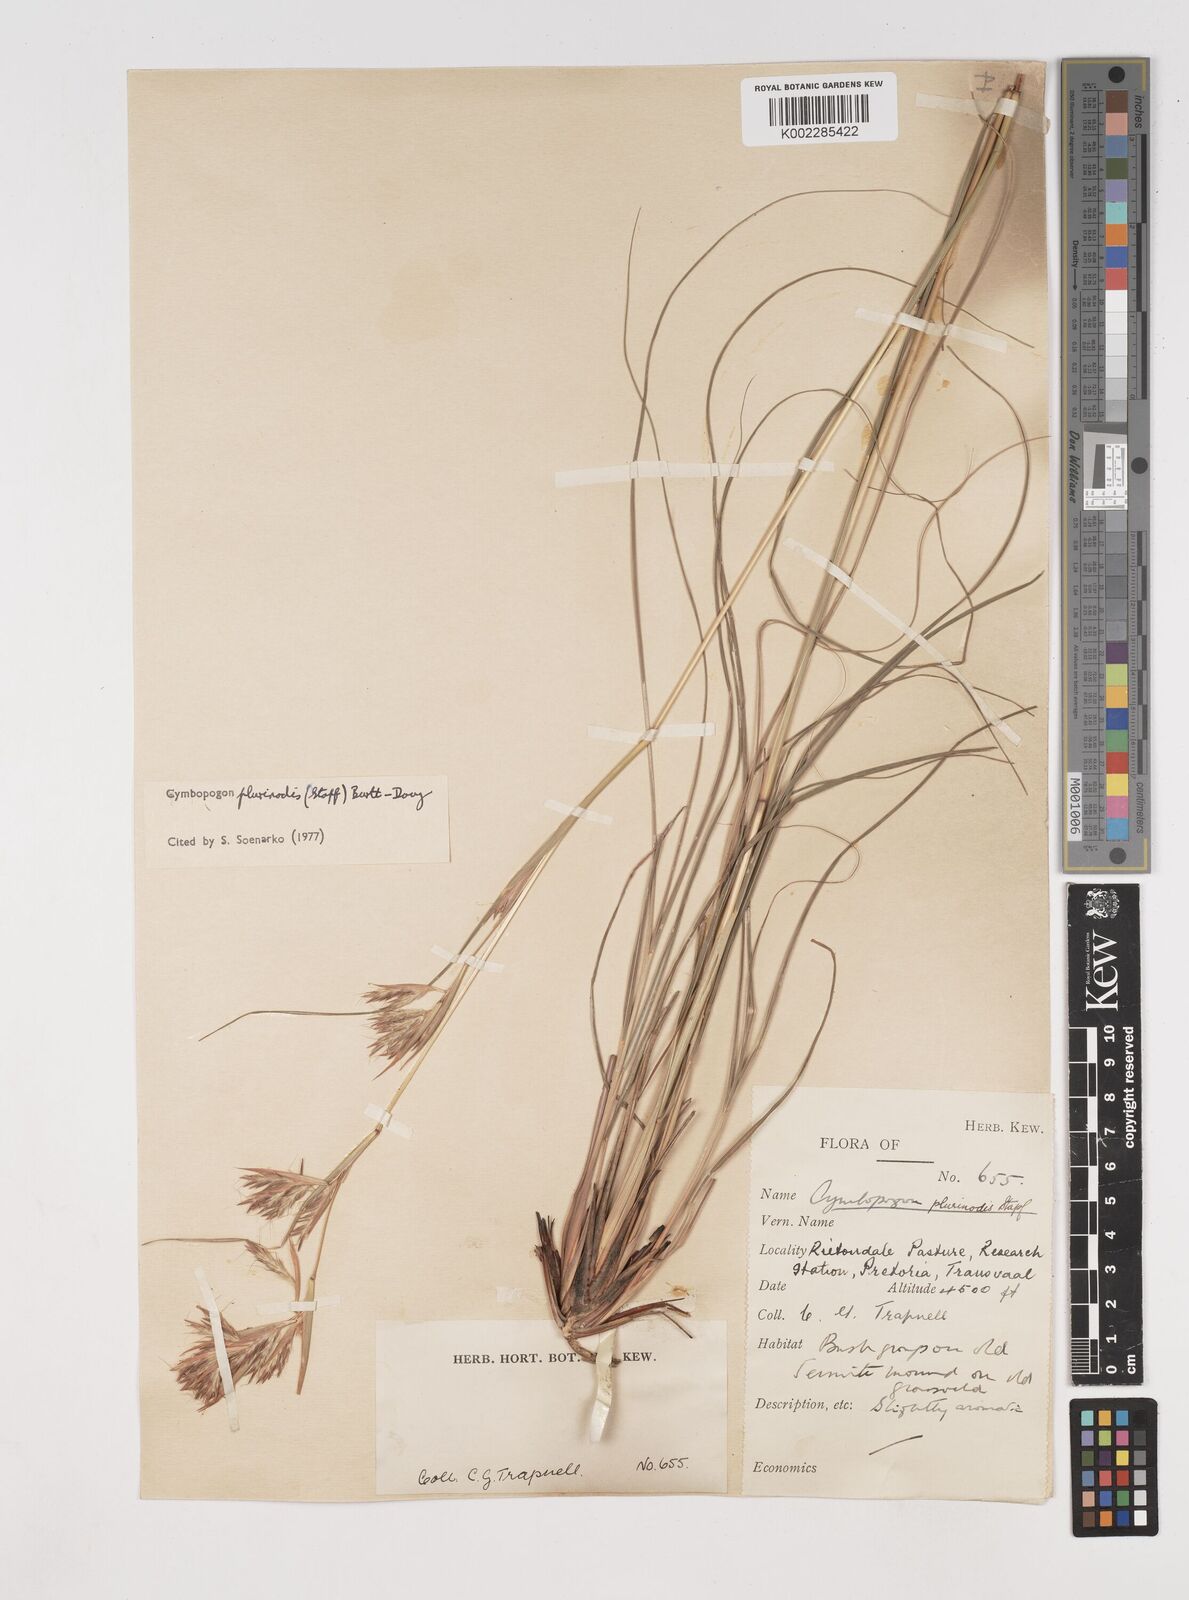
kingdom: Plantae
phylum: Tracheophyta
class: Liliopsida
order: Poales
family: Poaceae
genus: Cymbopogon
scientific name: Cymbopogon
